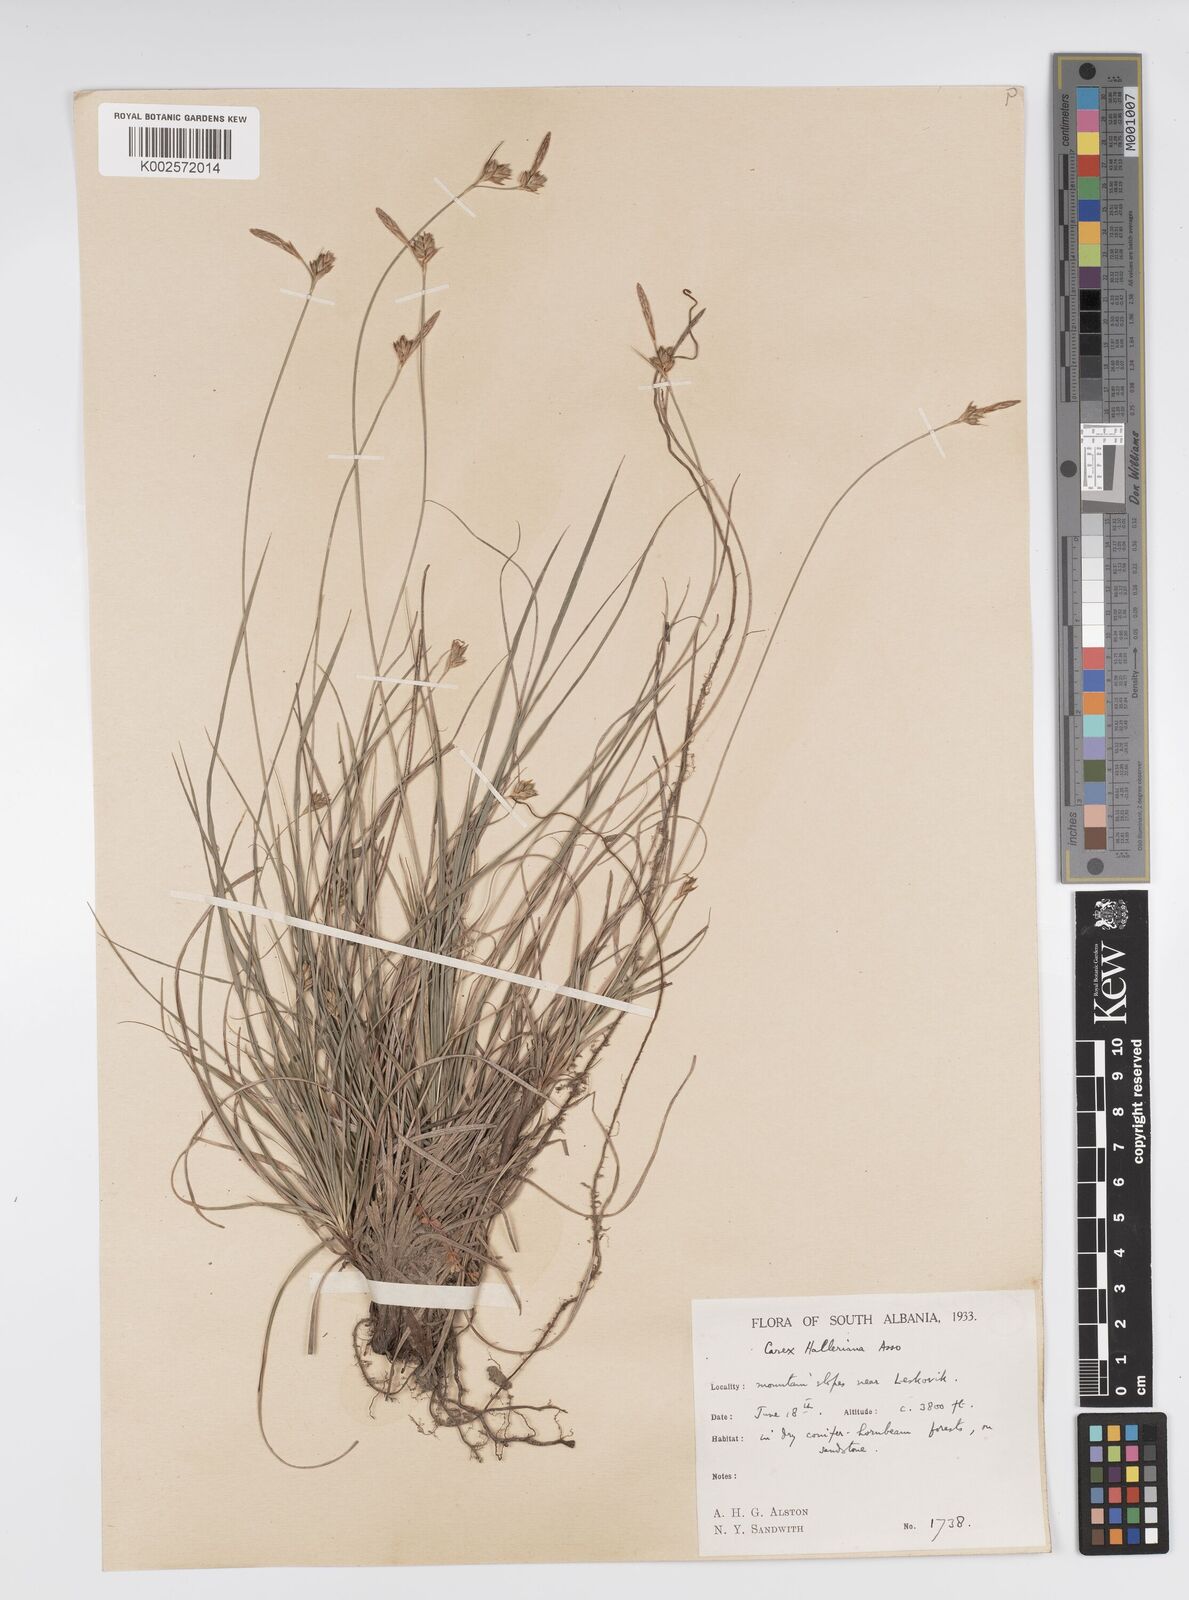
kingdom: Plantae
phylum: Tracheophyta
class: Liliopsida
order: Poales
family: Cyperaceae
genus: Carex
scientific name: Carex halleriana
